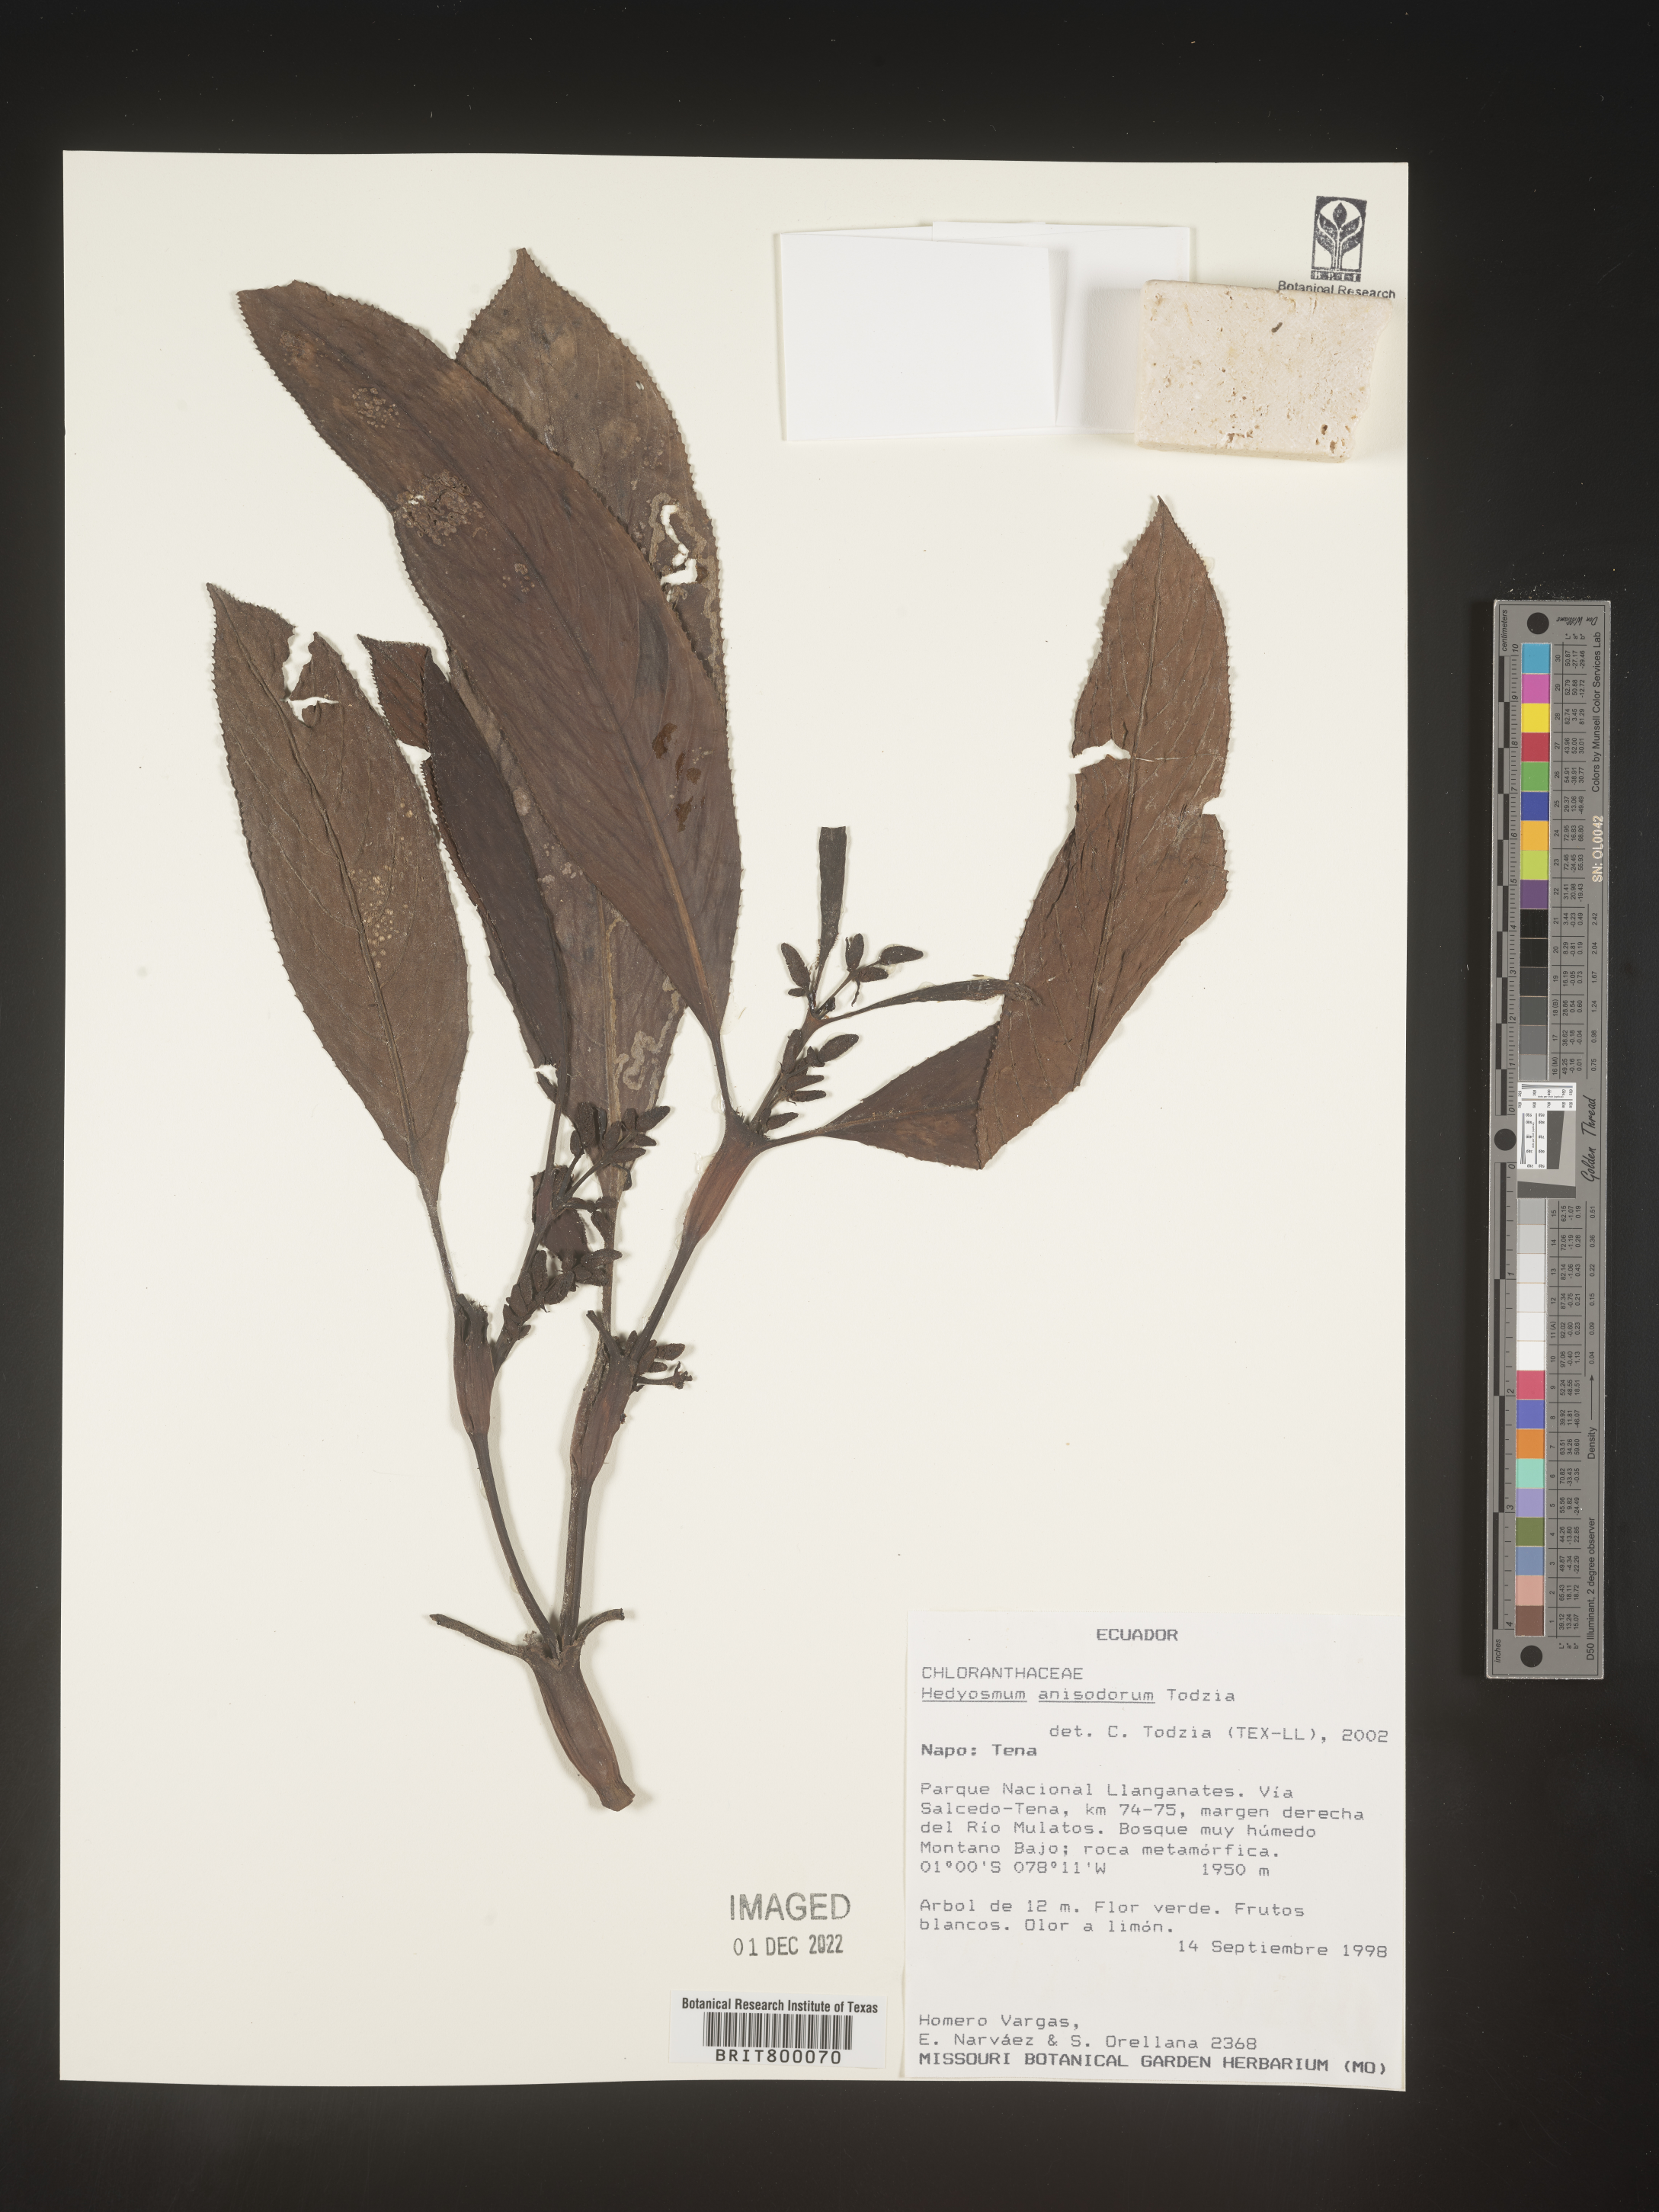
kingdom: Plantae
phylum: Tracheophyta
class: Magnoliopsida
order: Chloranthales
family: Chloranthaceae
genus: Hedyosmum
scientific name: Hedyosmum
